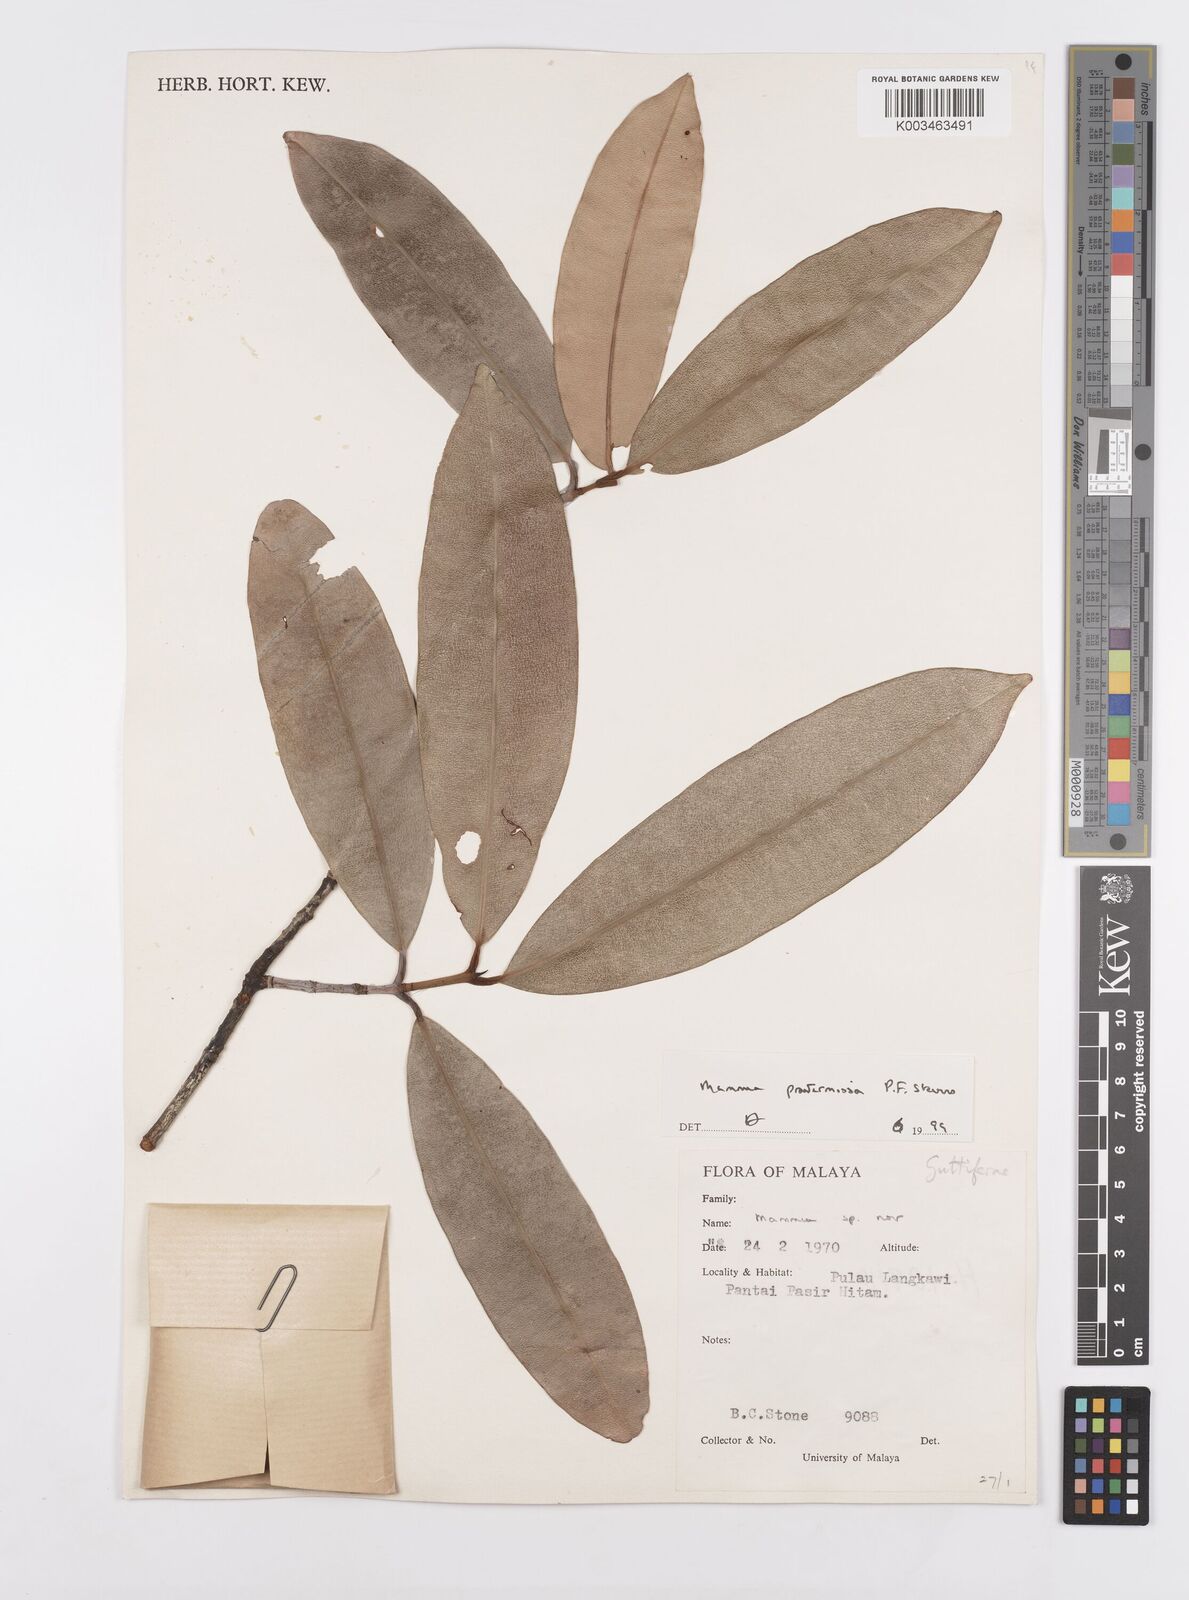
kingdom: Plantae
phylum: Tracheophyta
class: Magnoliopsida
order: Malpighiales
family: Calophyllaceae
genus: Mammea
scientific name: Mammea
